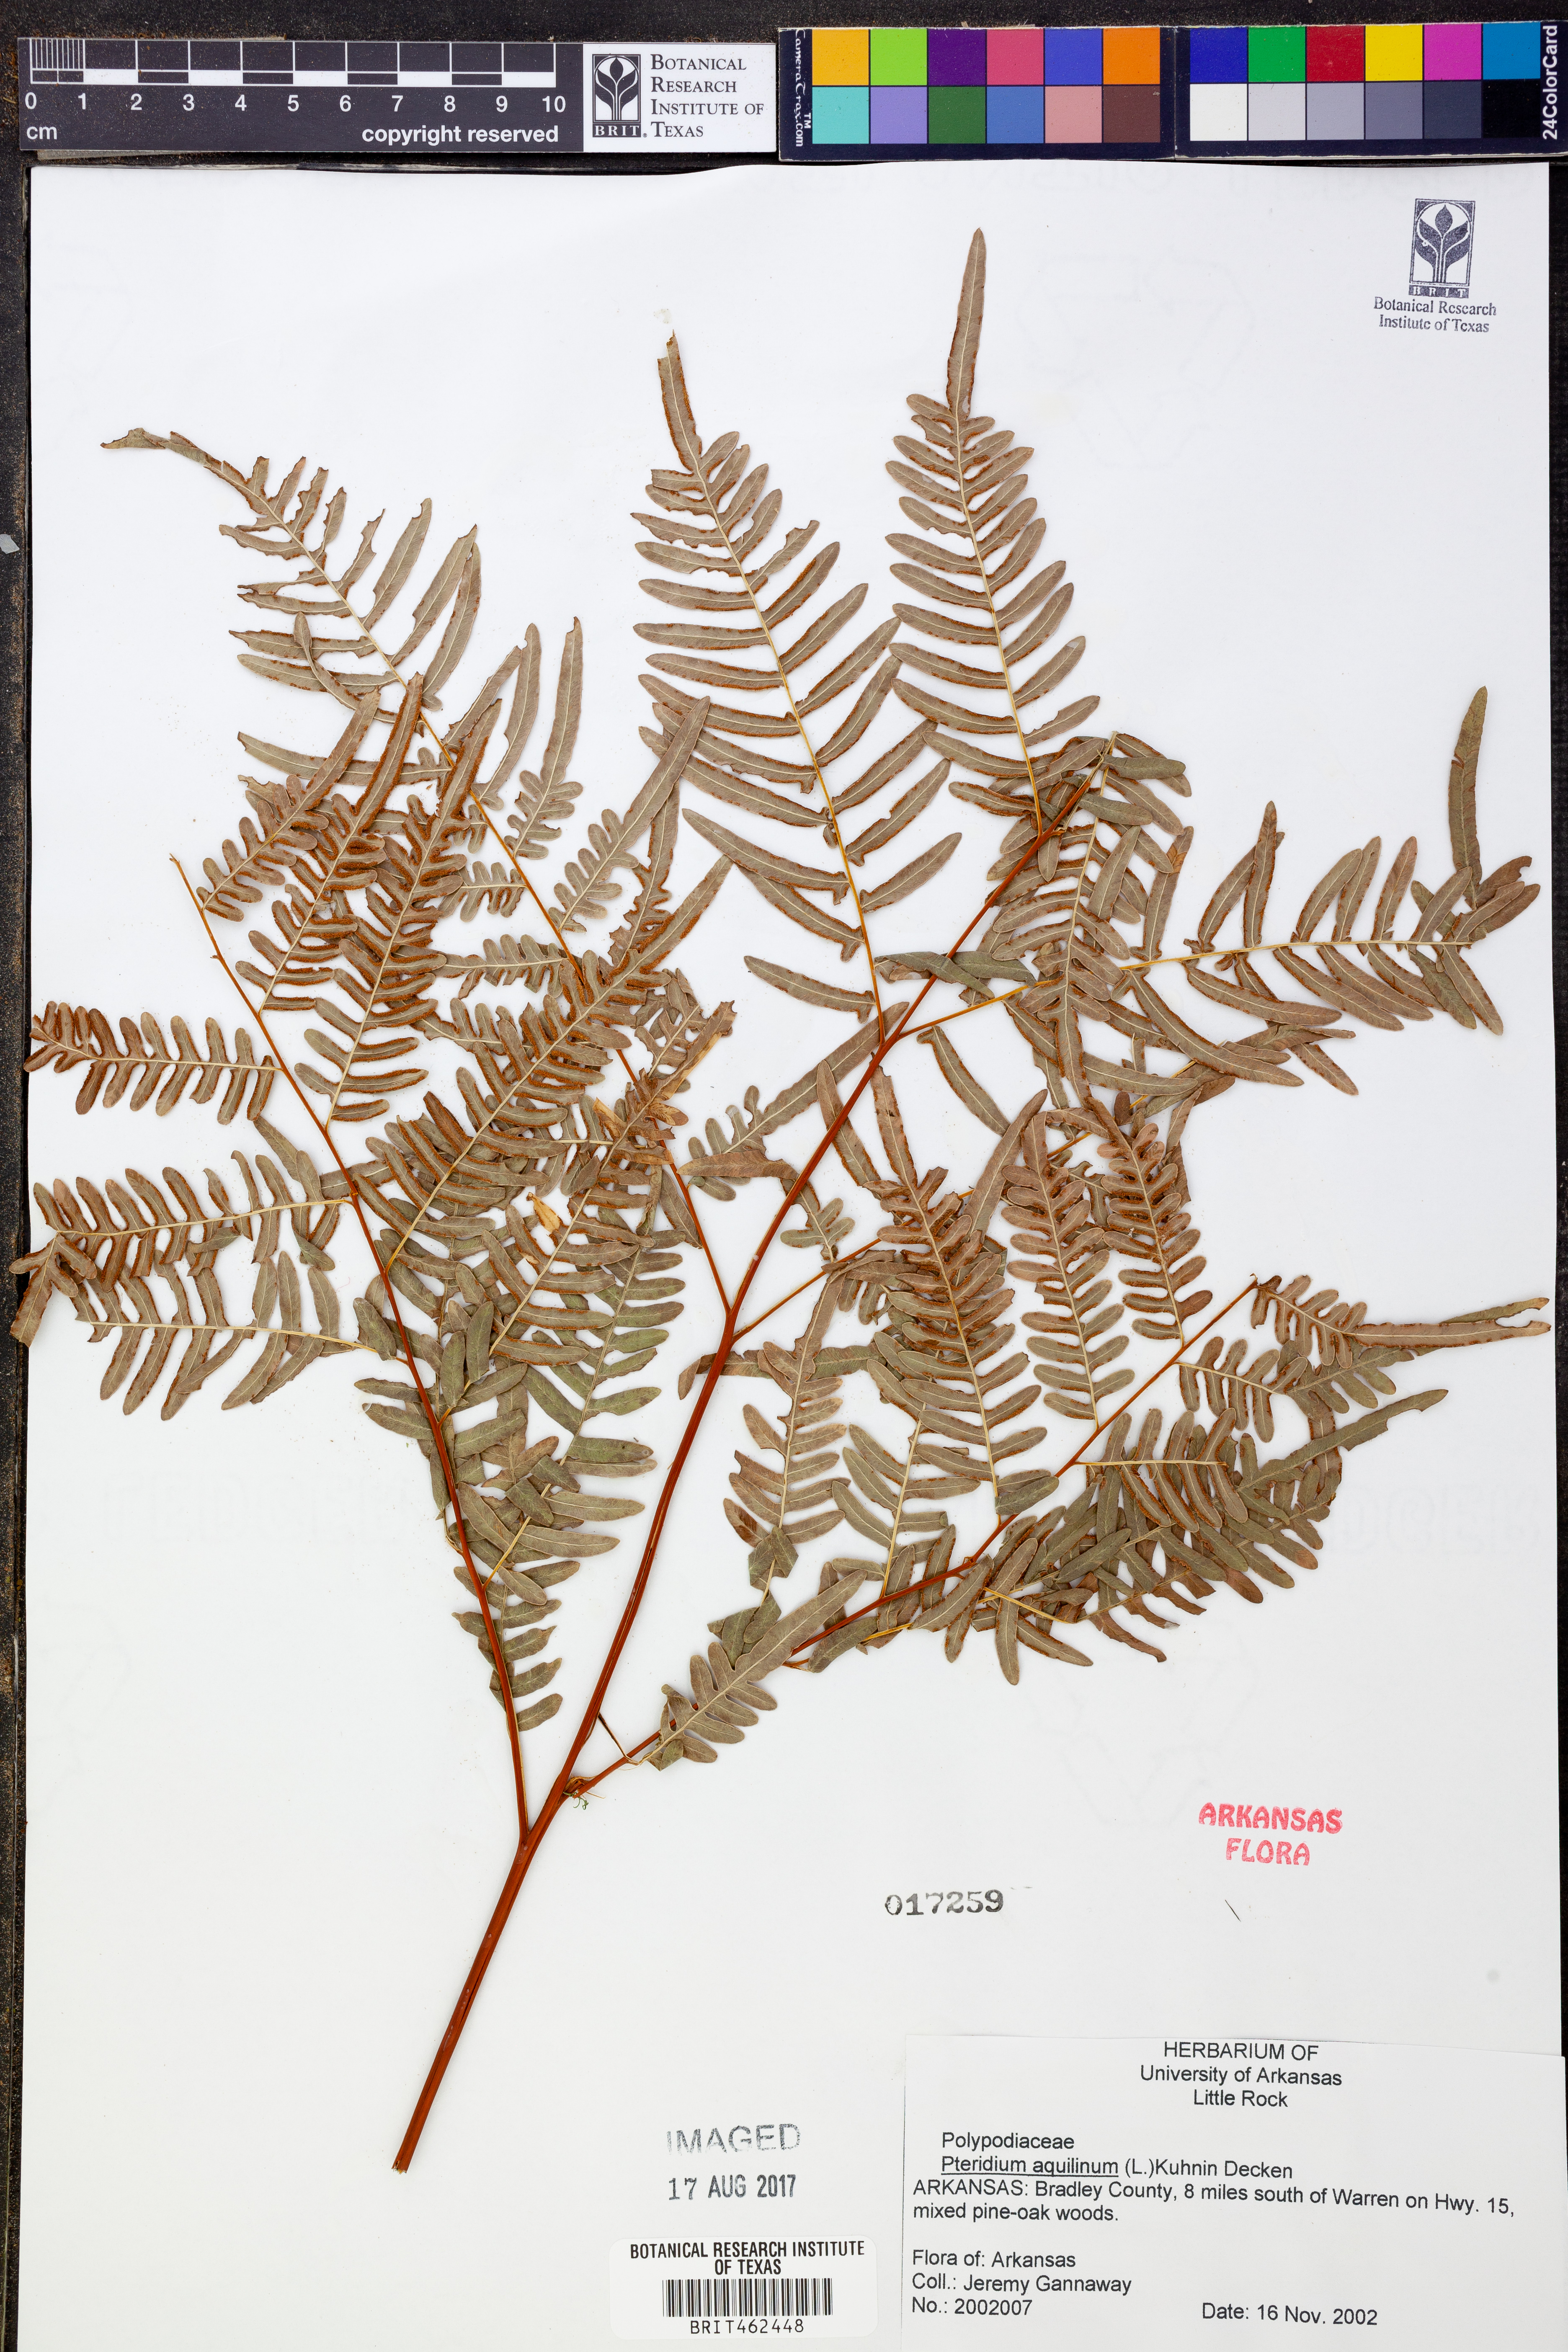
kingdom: Plantae
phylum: Tracheophyta
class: Polypodiopsida
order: Polypodiales
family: Dennstaedtiaceae
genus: Pteridium
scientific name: Pteridium aquilinum
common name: Bracken
